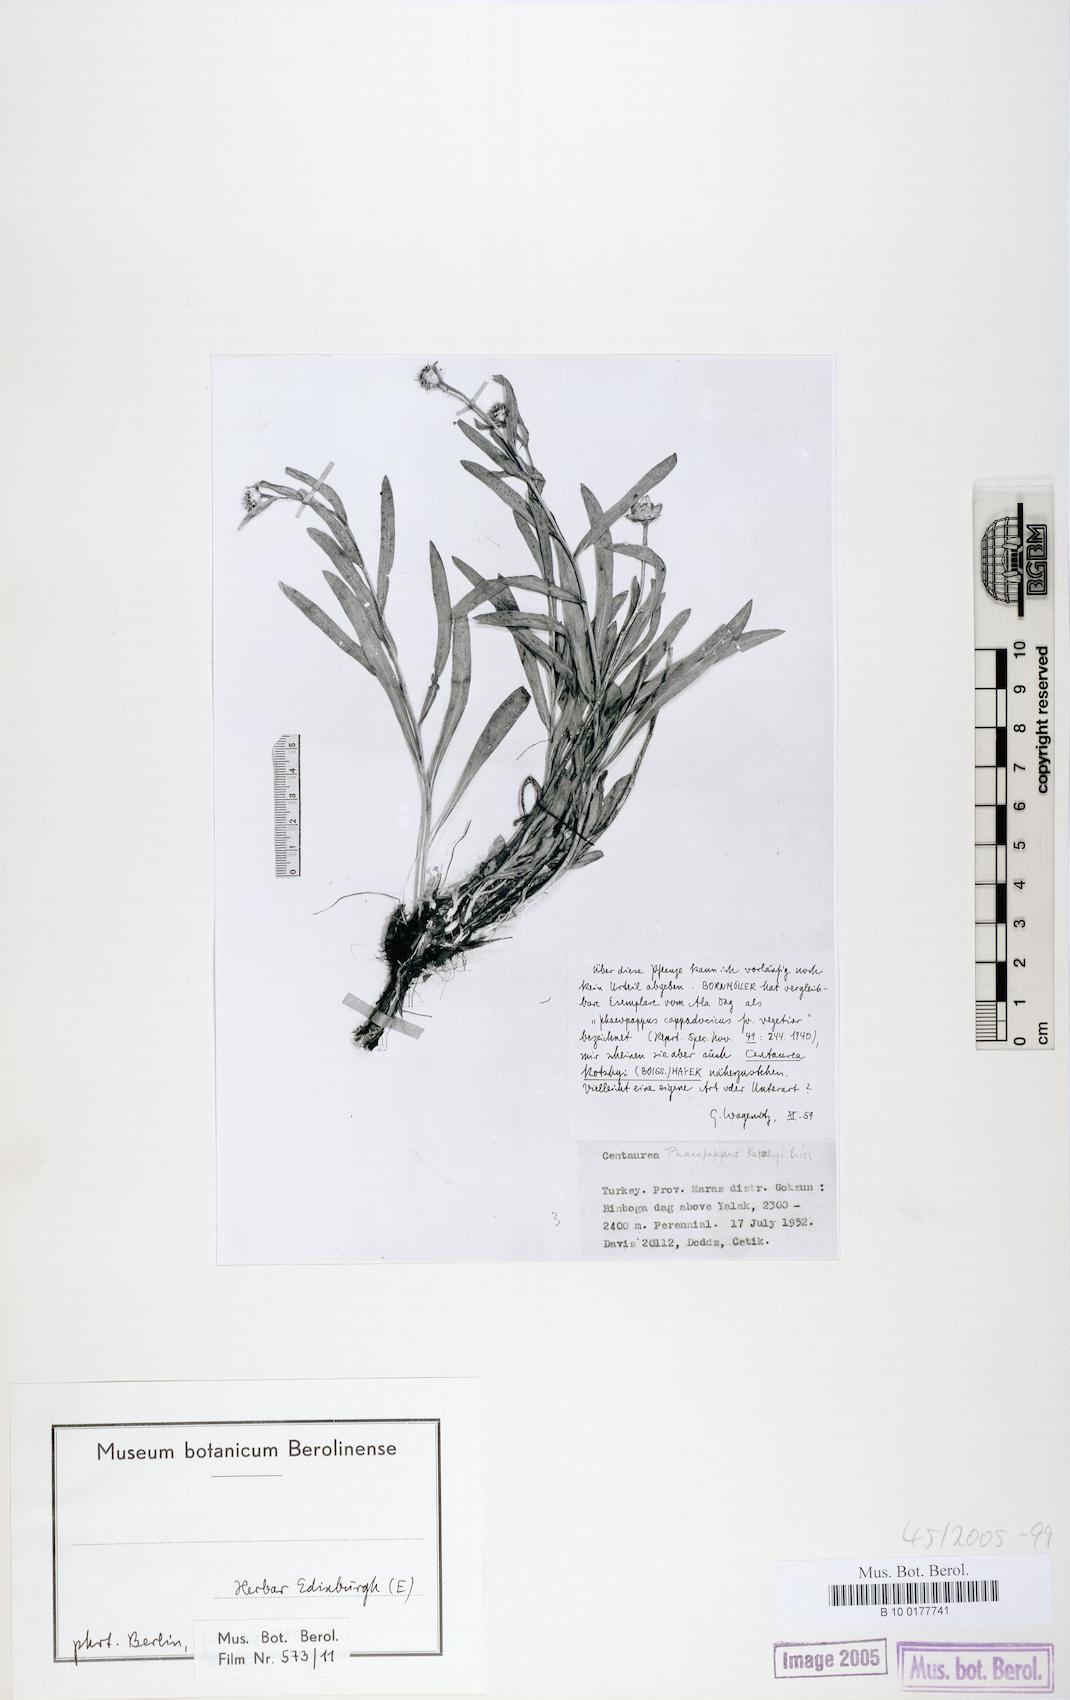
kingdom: Plantae
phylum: Tracheophyta
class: Magnoliopsida
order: Asterales
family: Asteraceae
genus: Centaurea
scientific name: Centaurea kotschyi
